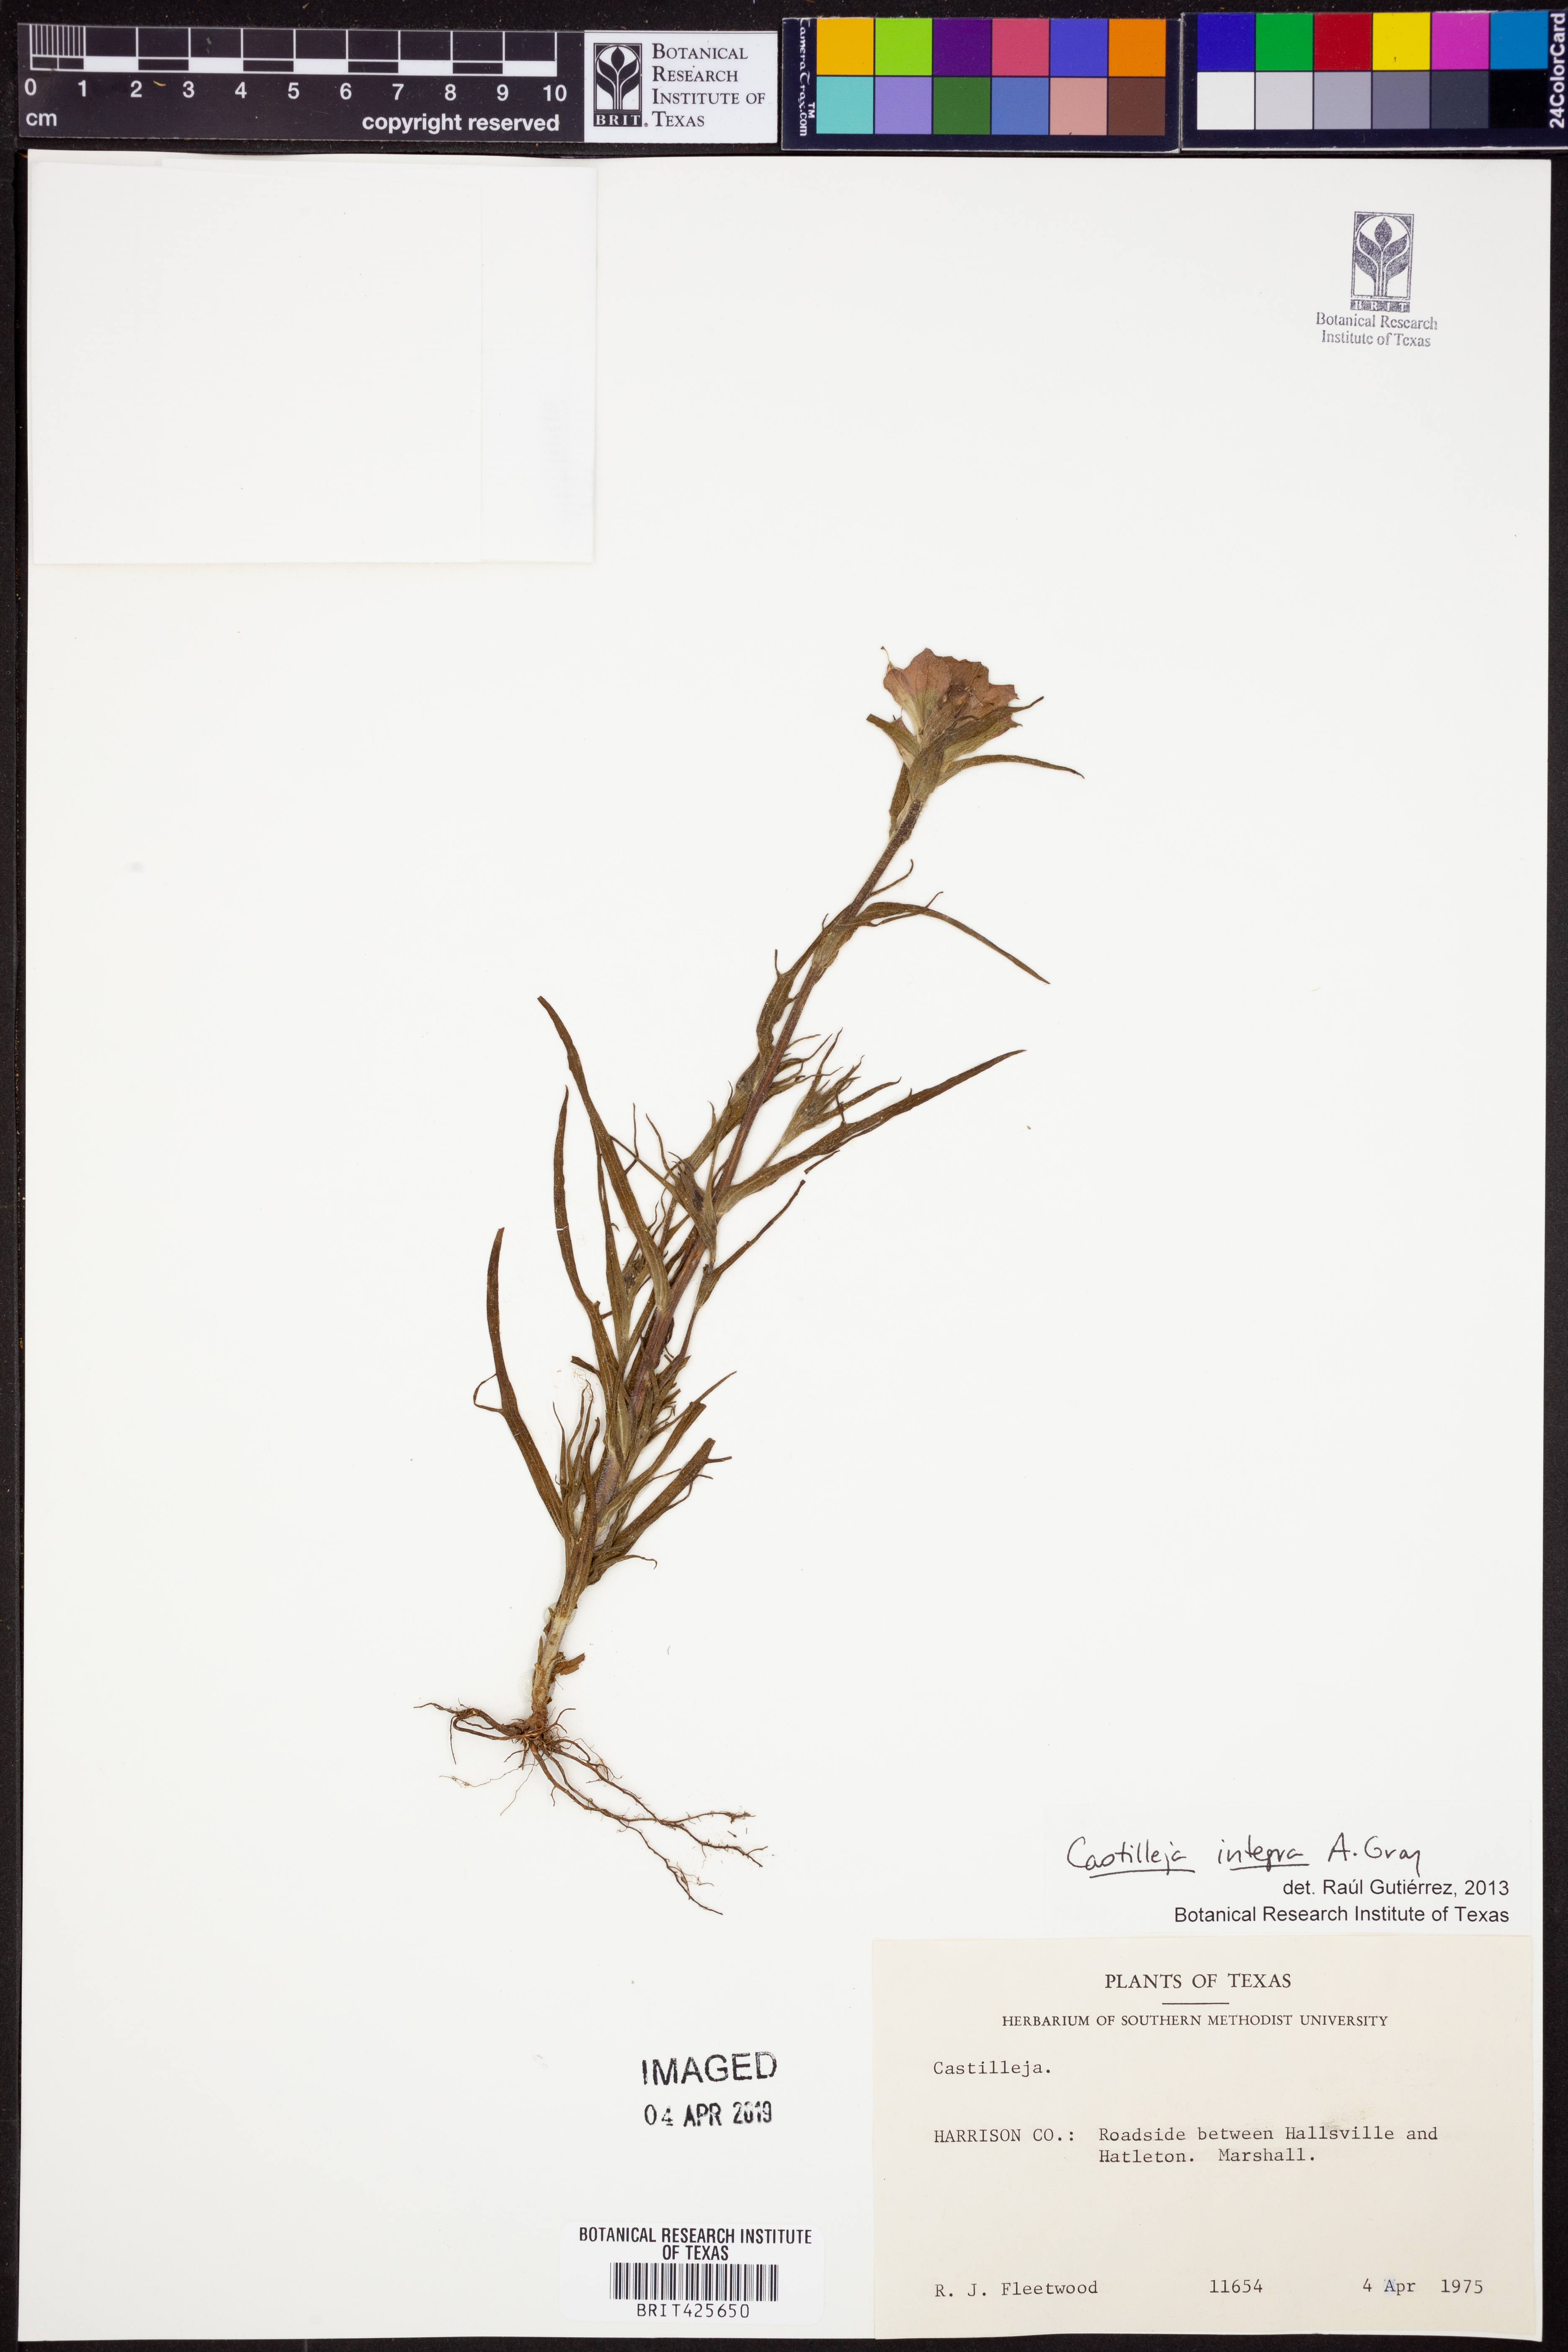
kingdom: Plantae
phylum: Tracheophyta
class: Magnoliopsida
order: Lamiales
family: Orobanchaceae
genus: Castilleja
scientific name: Castilleja integra
